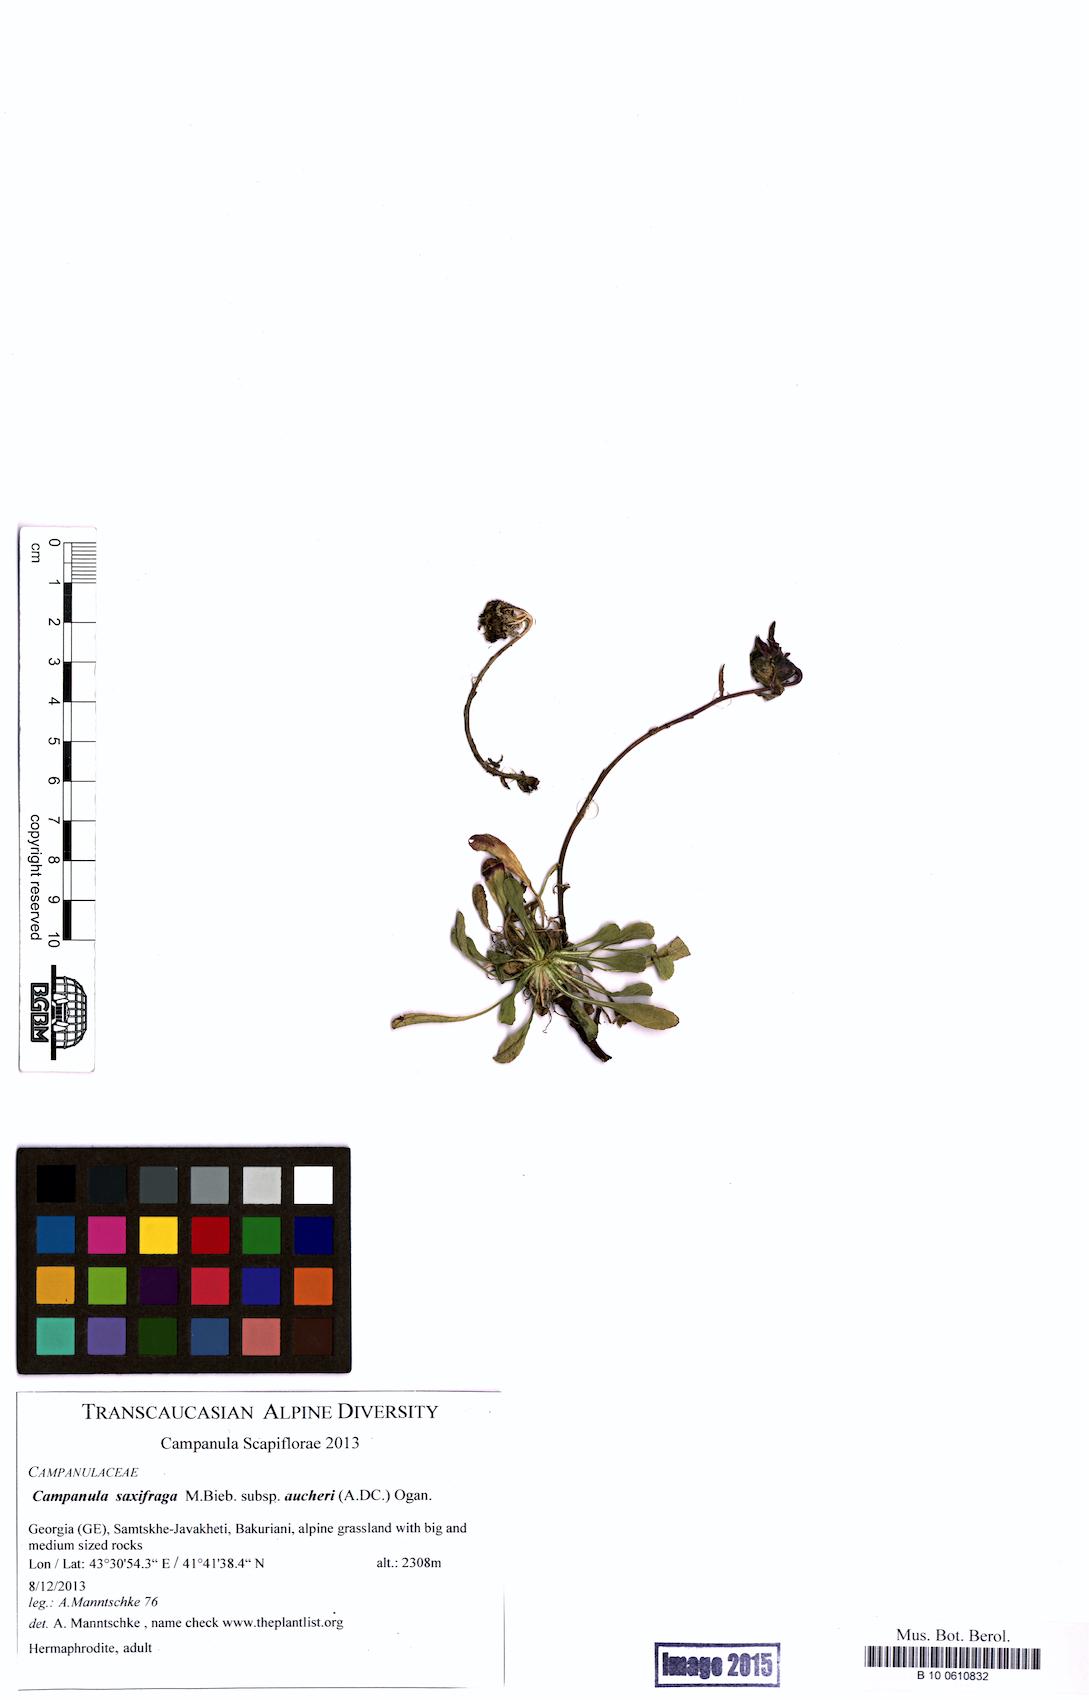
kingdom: Plantae
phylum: Tracheophyta
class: Magnoliopsida
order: Asterales
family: Campanulaceae
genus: Campanula
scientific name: Campanula saxifraga
